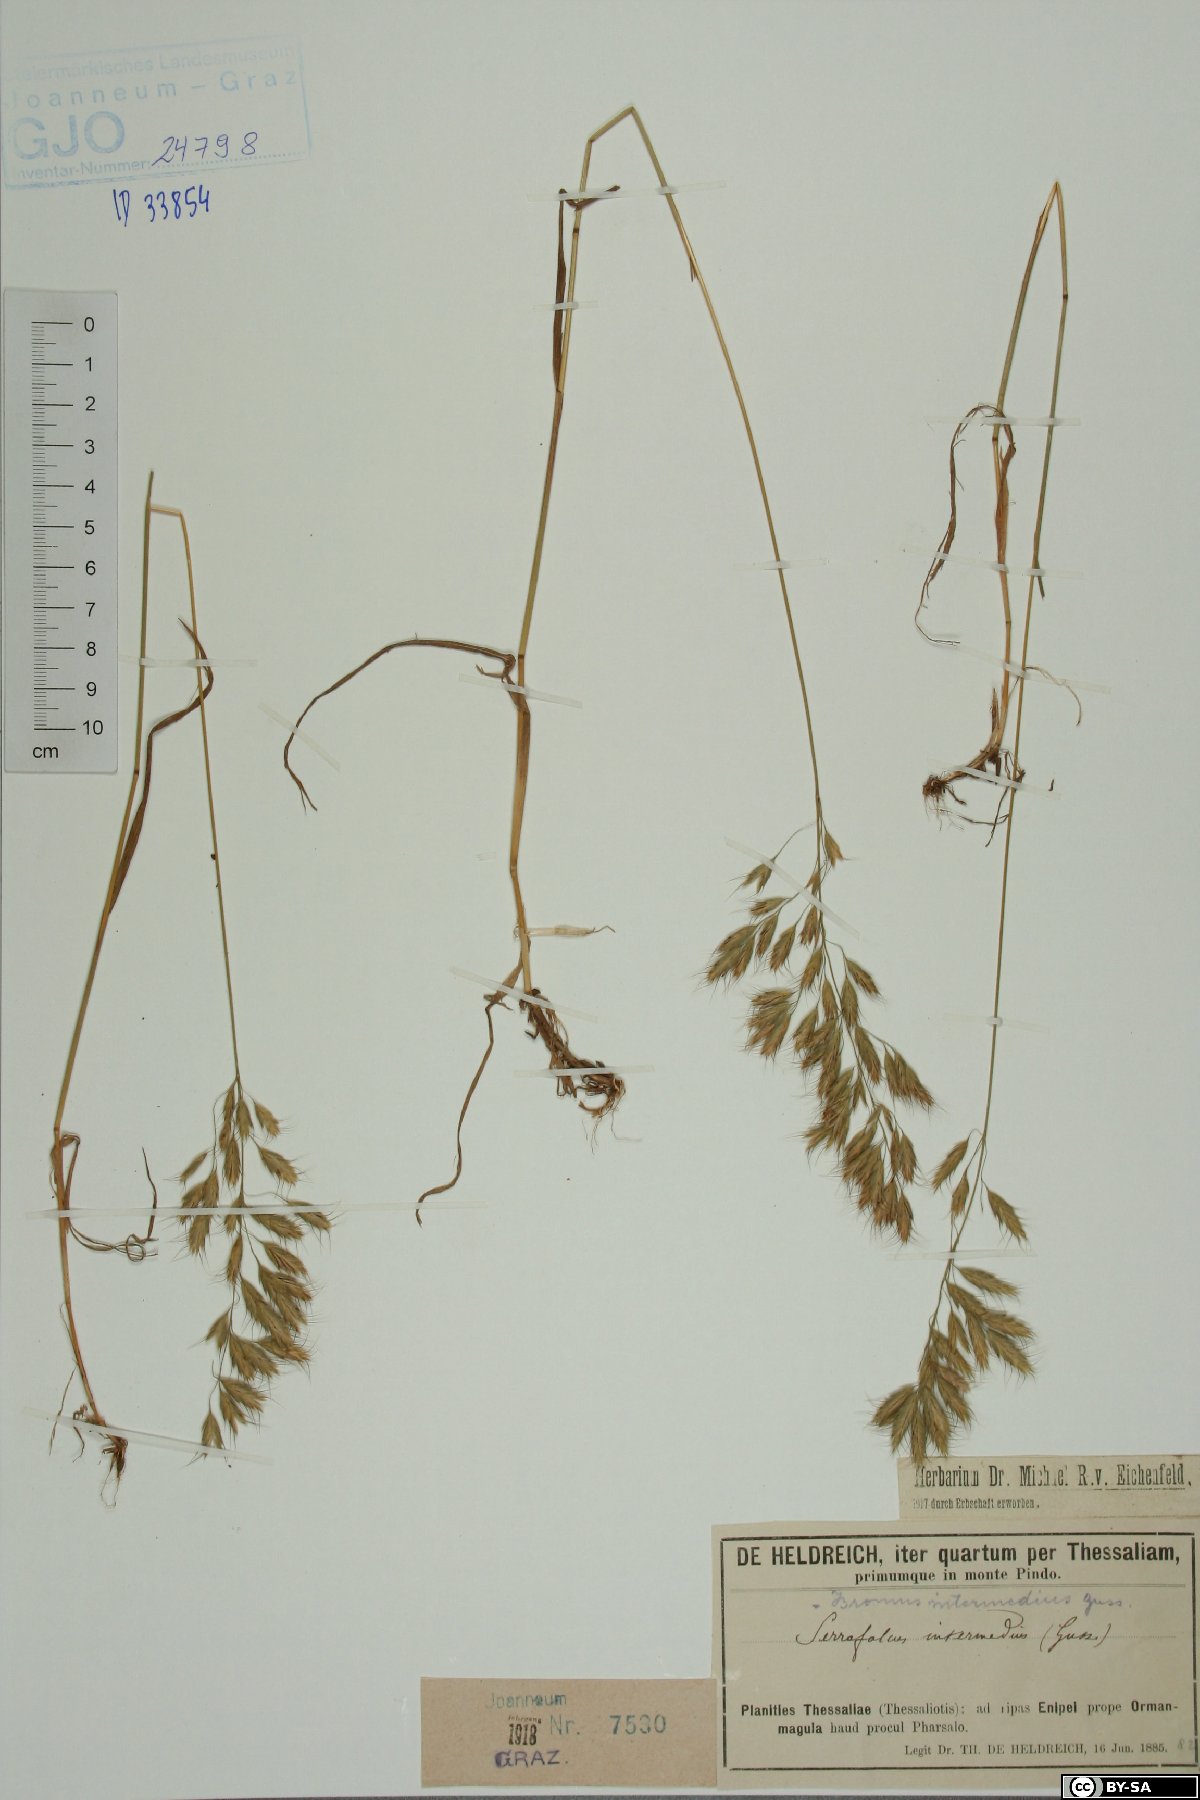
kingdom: Plantae
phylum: Tracheophyta
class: Liliopsida
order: Poales
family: Poaceae
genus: Bromus
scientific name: Bromus intermedius
